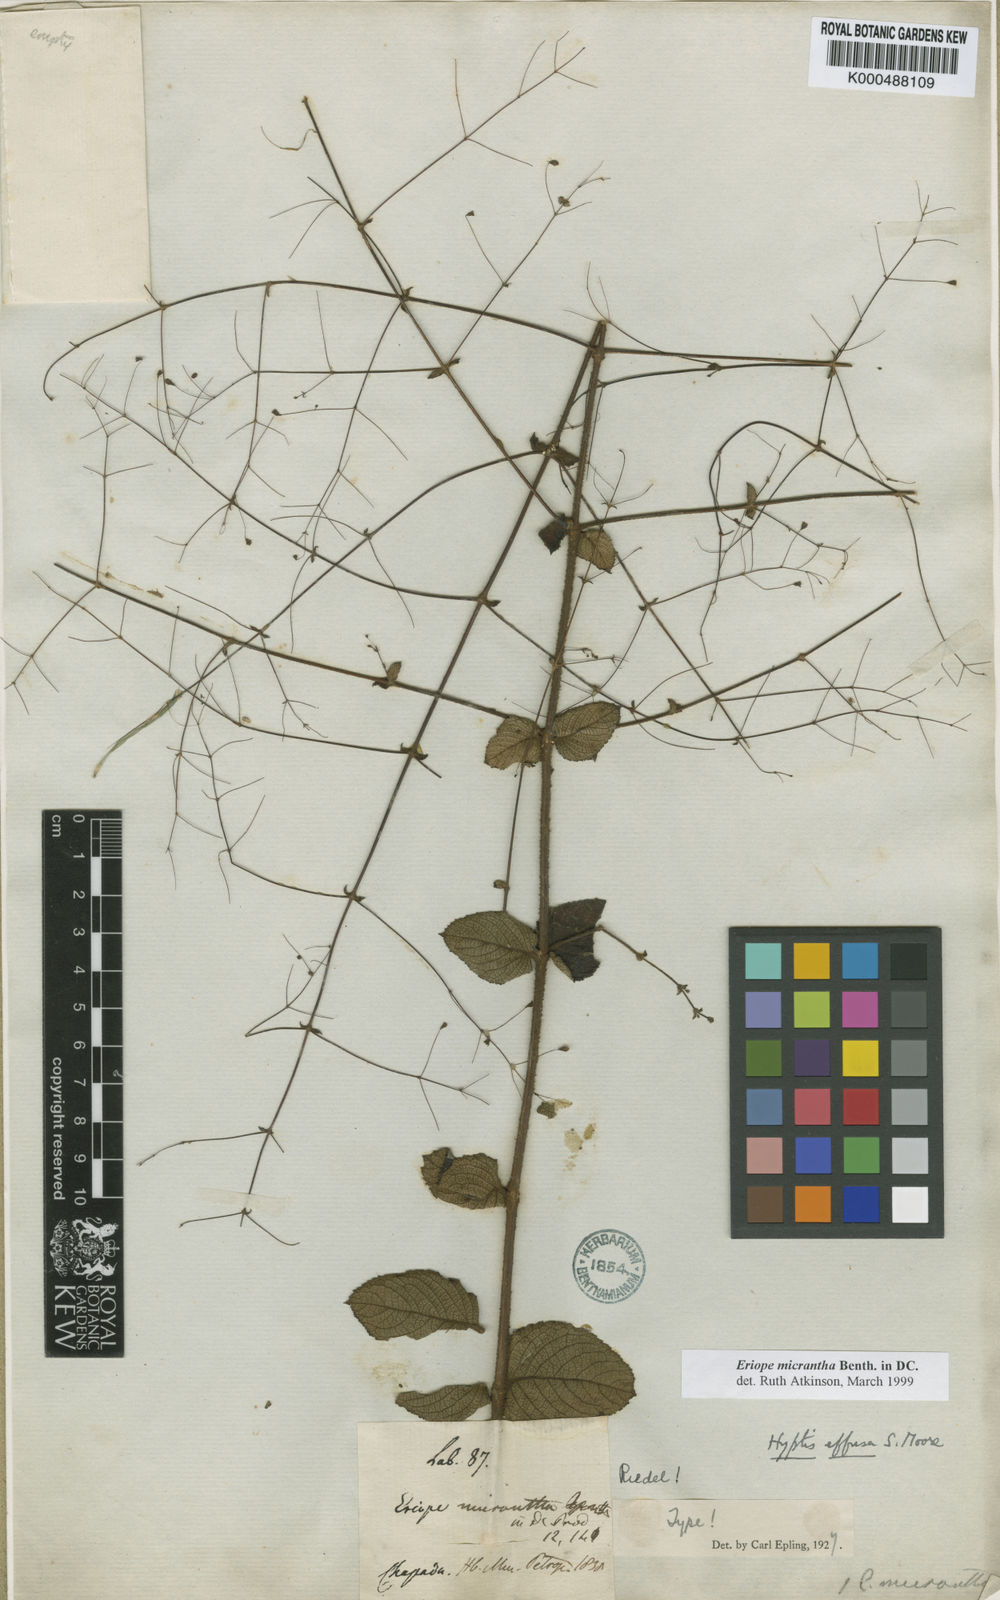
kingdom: Plantae
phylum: Tracheophyta
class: Magnoliopsida
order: Lamiales
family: Lamiaceae
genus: Hypenia
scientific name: Hypenia micrantha
